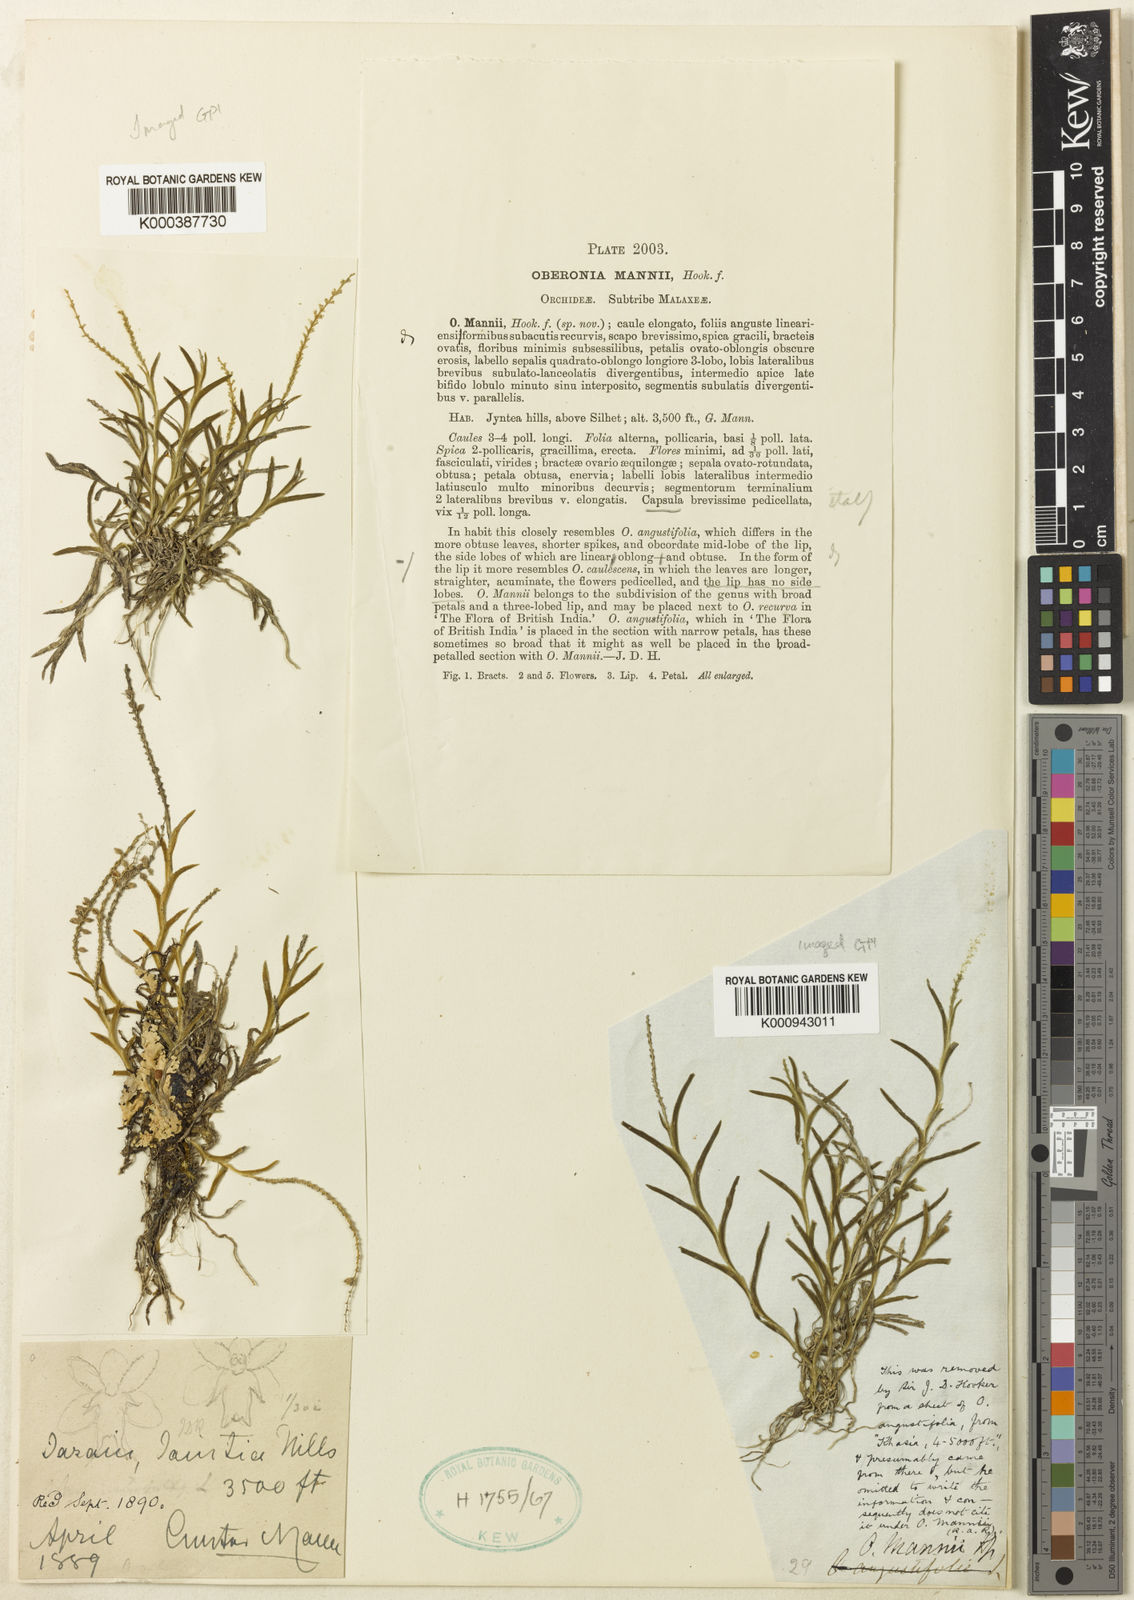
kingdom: Plantae
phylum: Tracheophyta
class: Liliopsida
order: Asparagales
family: Orchidaceae
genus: Oberonia
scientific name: Oberonia anthropophora
